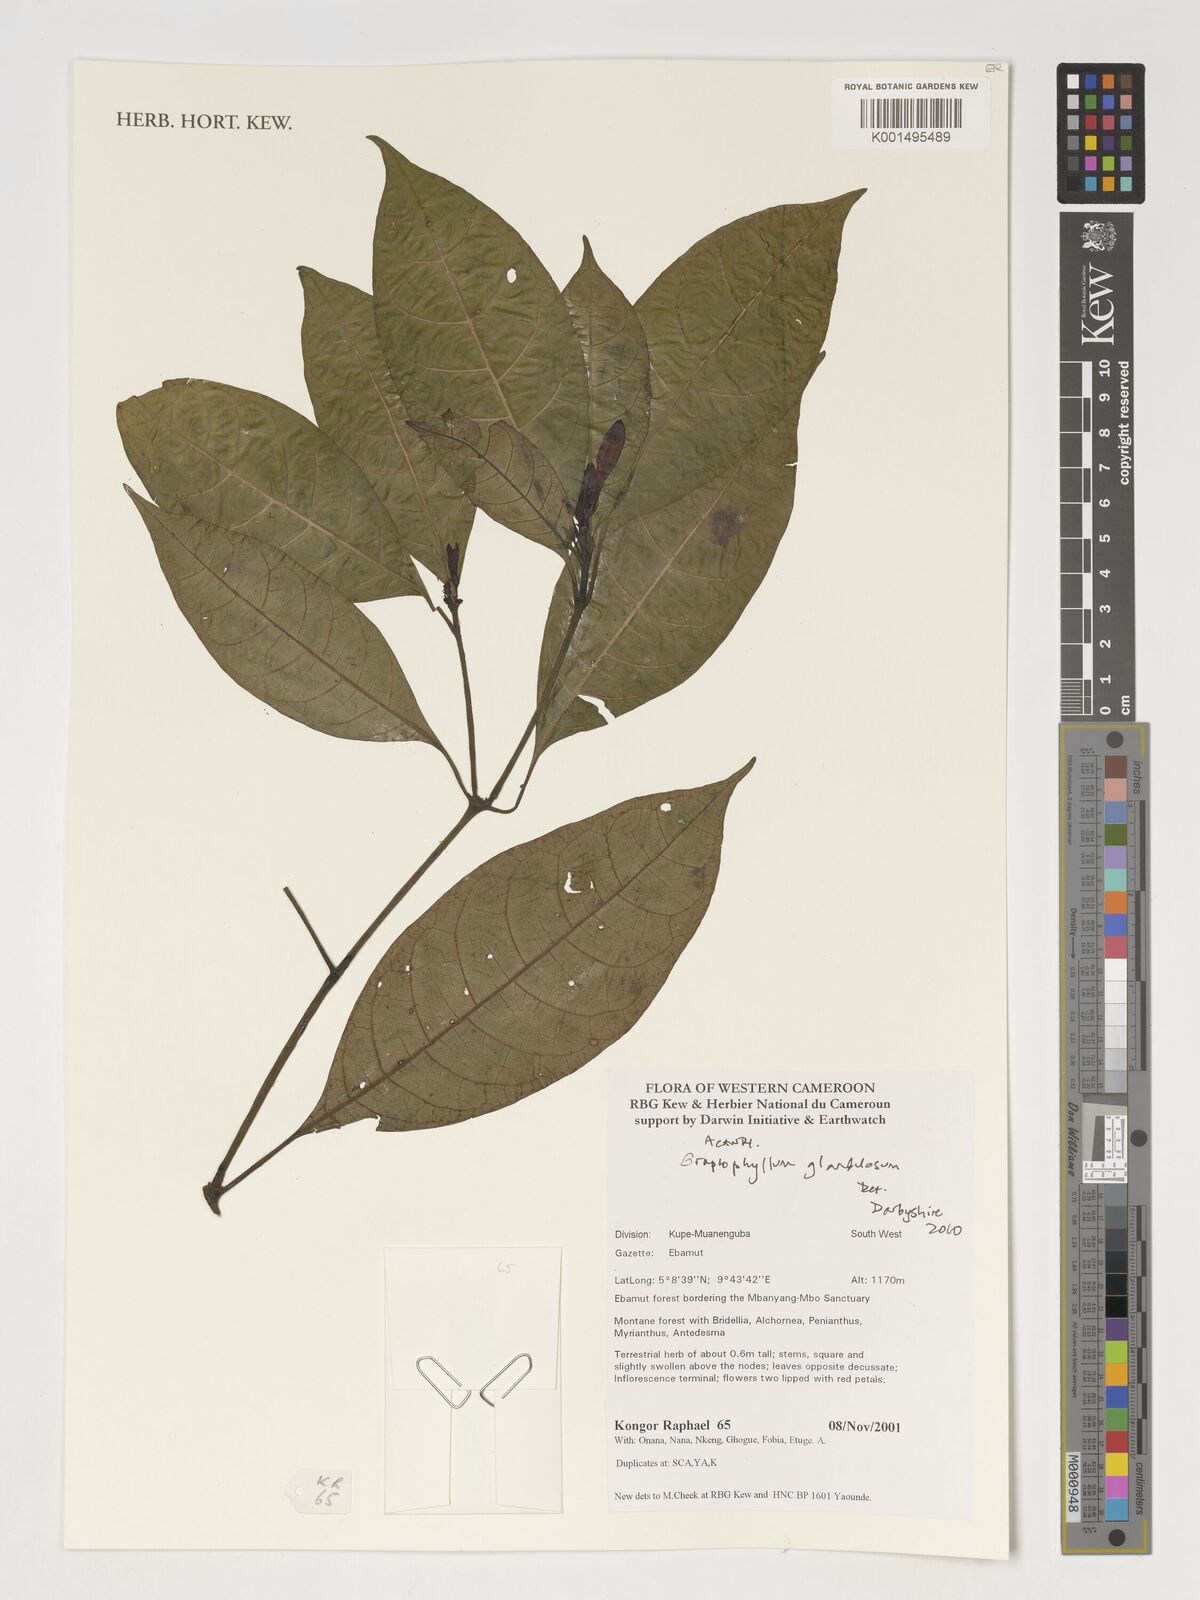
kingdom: Plantae
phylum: Tracheophyta
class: Magnoliopsida
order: Lamiales
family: Acanthaceae
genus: Graptophyllum
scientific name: Graptophyllum glandulosum
